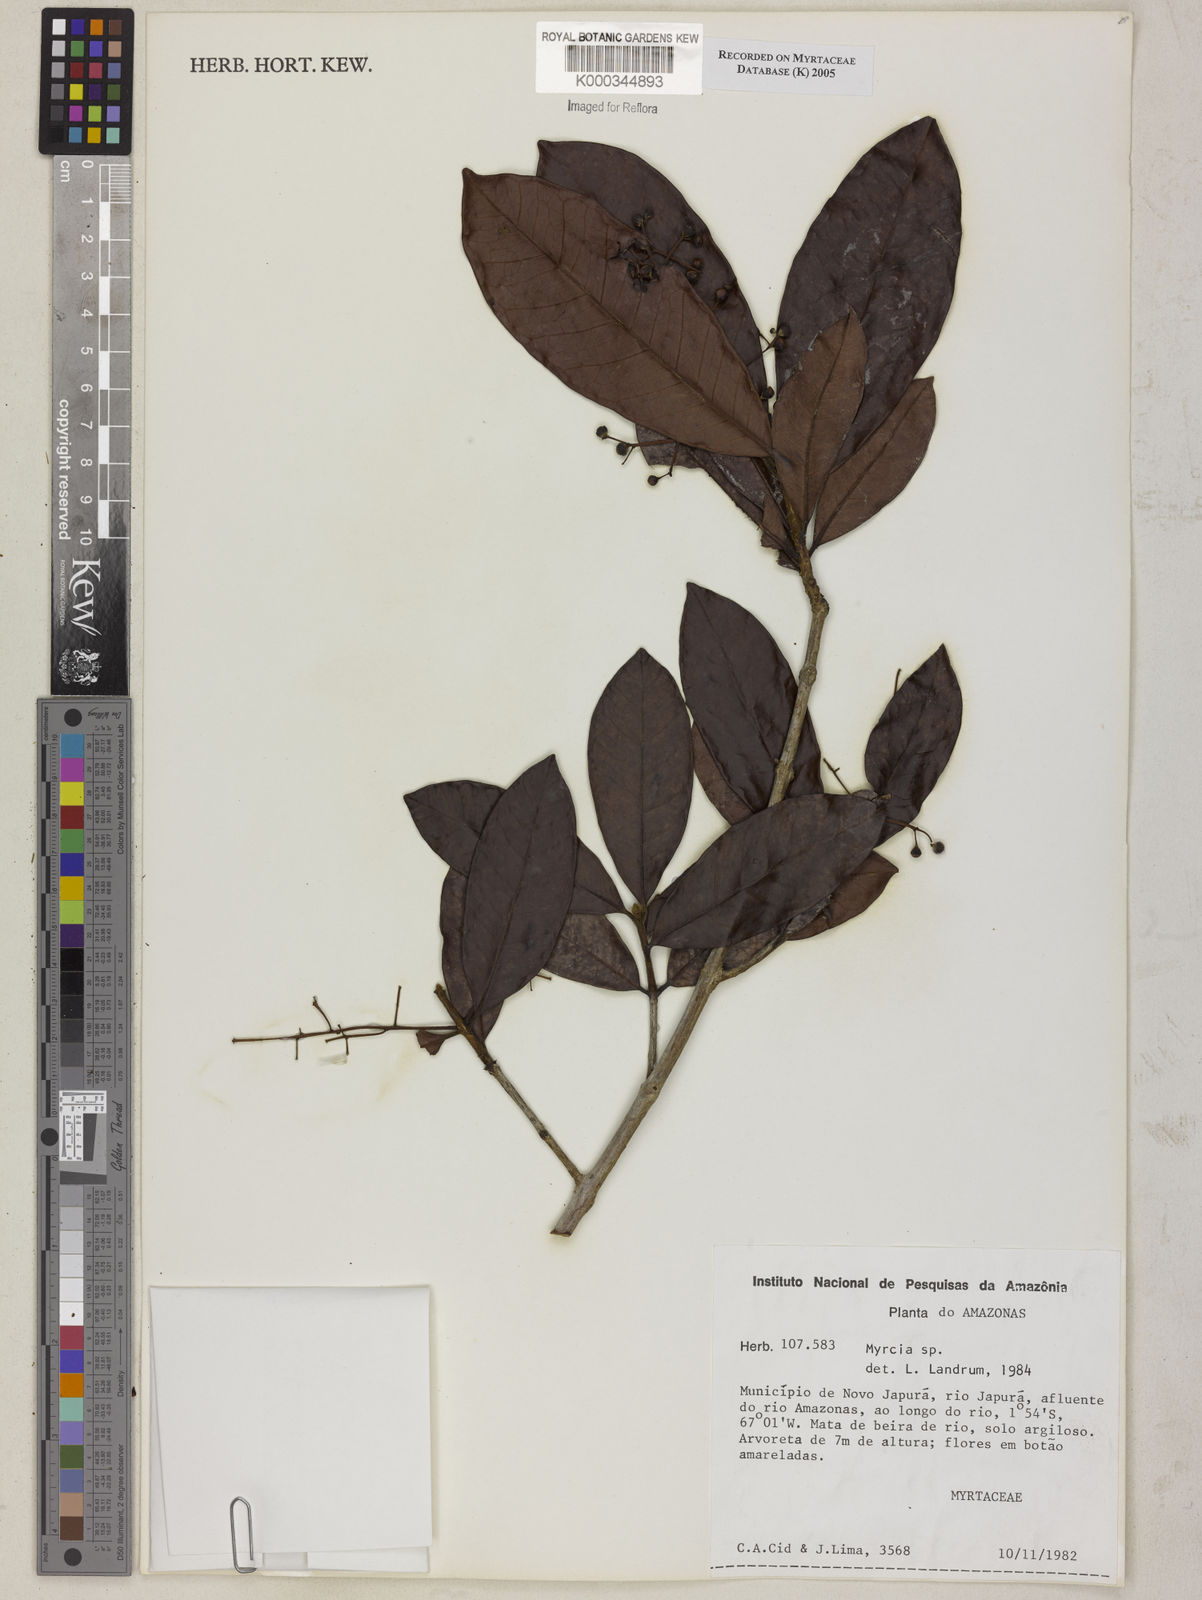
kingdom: Plantae
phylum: Tracheophyta
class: Magnoliopsida
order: Myrtales
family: Myrtaceae
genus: Myrcia
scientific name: Myrcia
